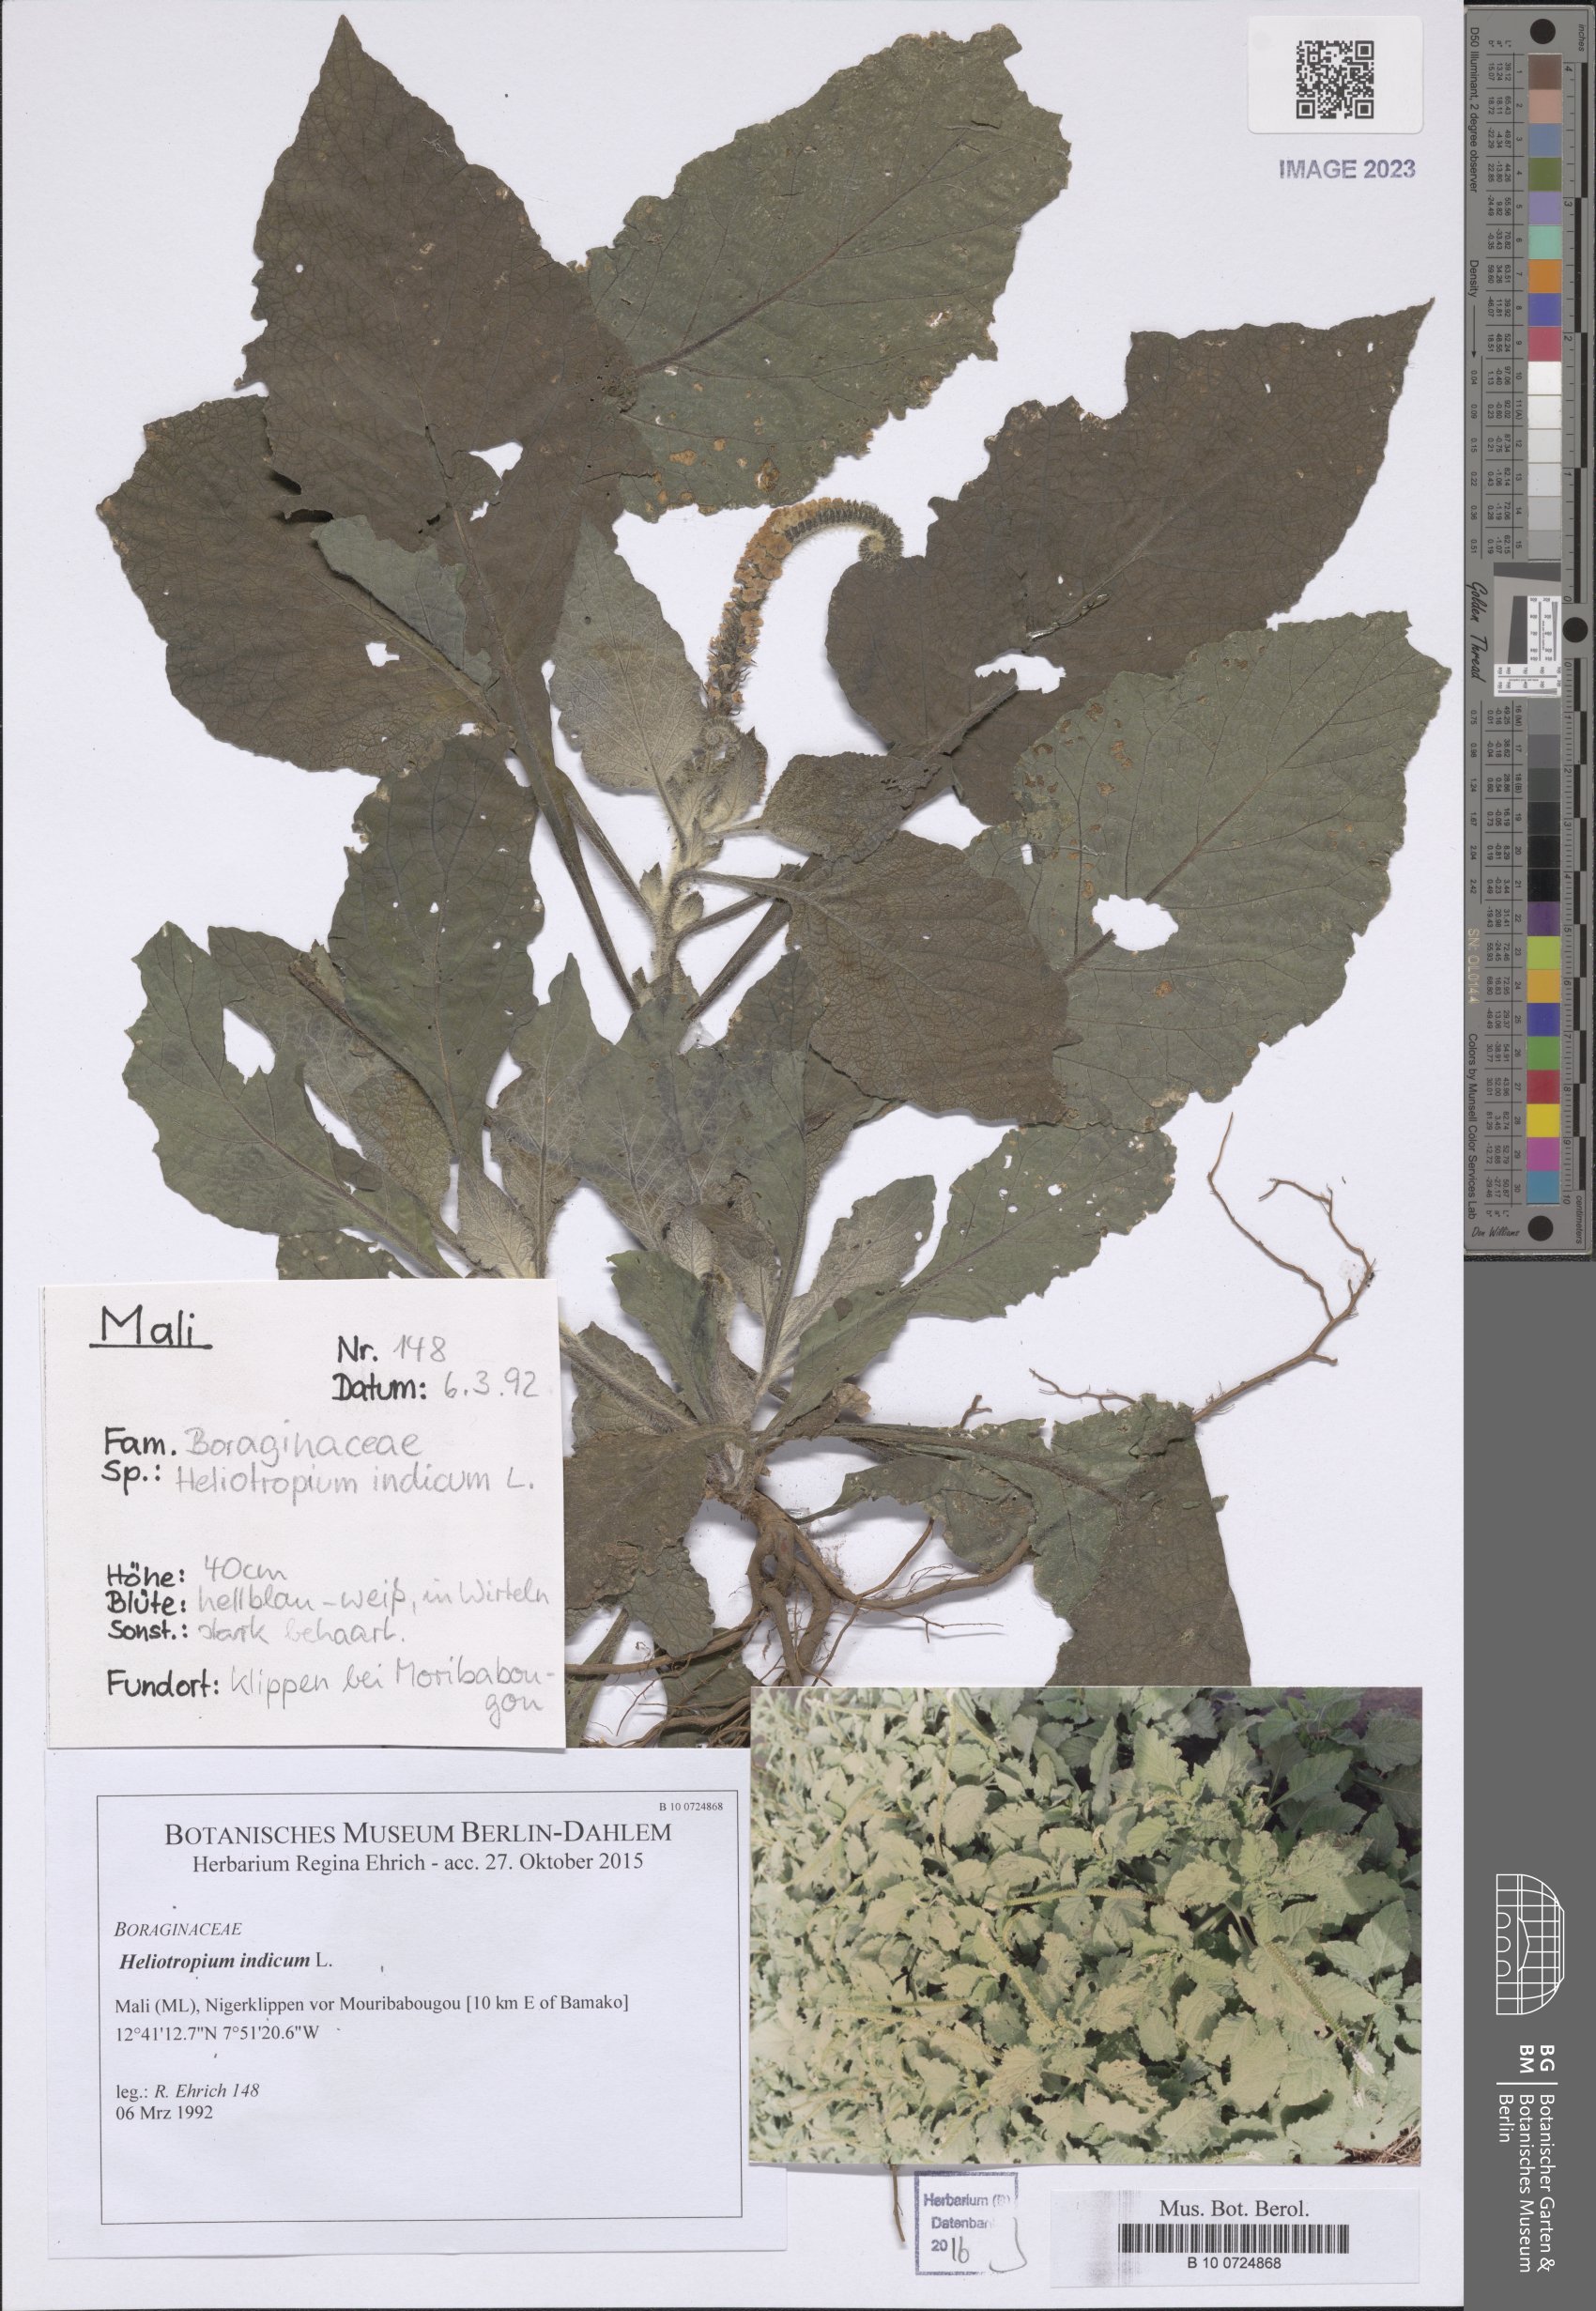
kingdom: Plantae
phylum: Tracheophyta
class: Magnoliopsida
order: Boraginales
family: Heliotropiaceae
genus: Heliotropium
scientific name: Heliotropium indicum
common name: Indian heliotrope
